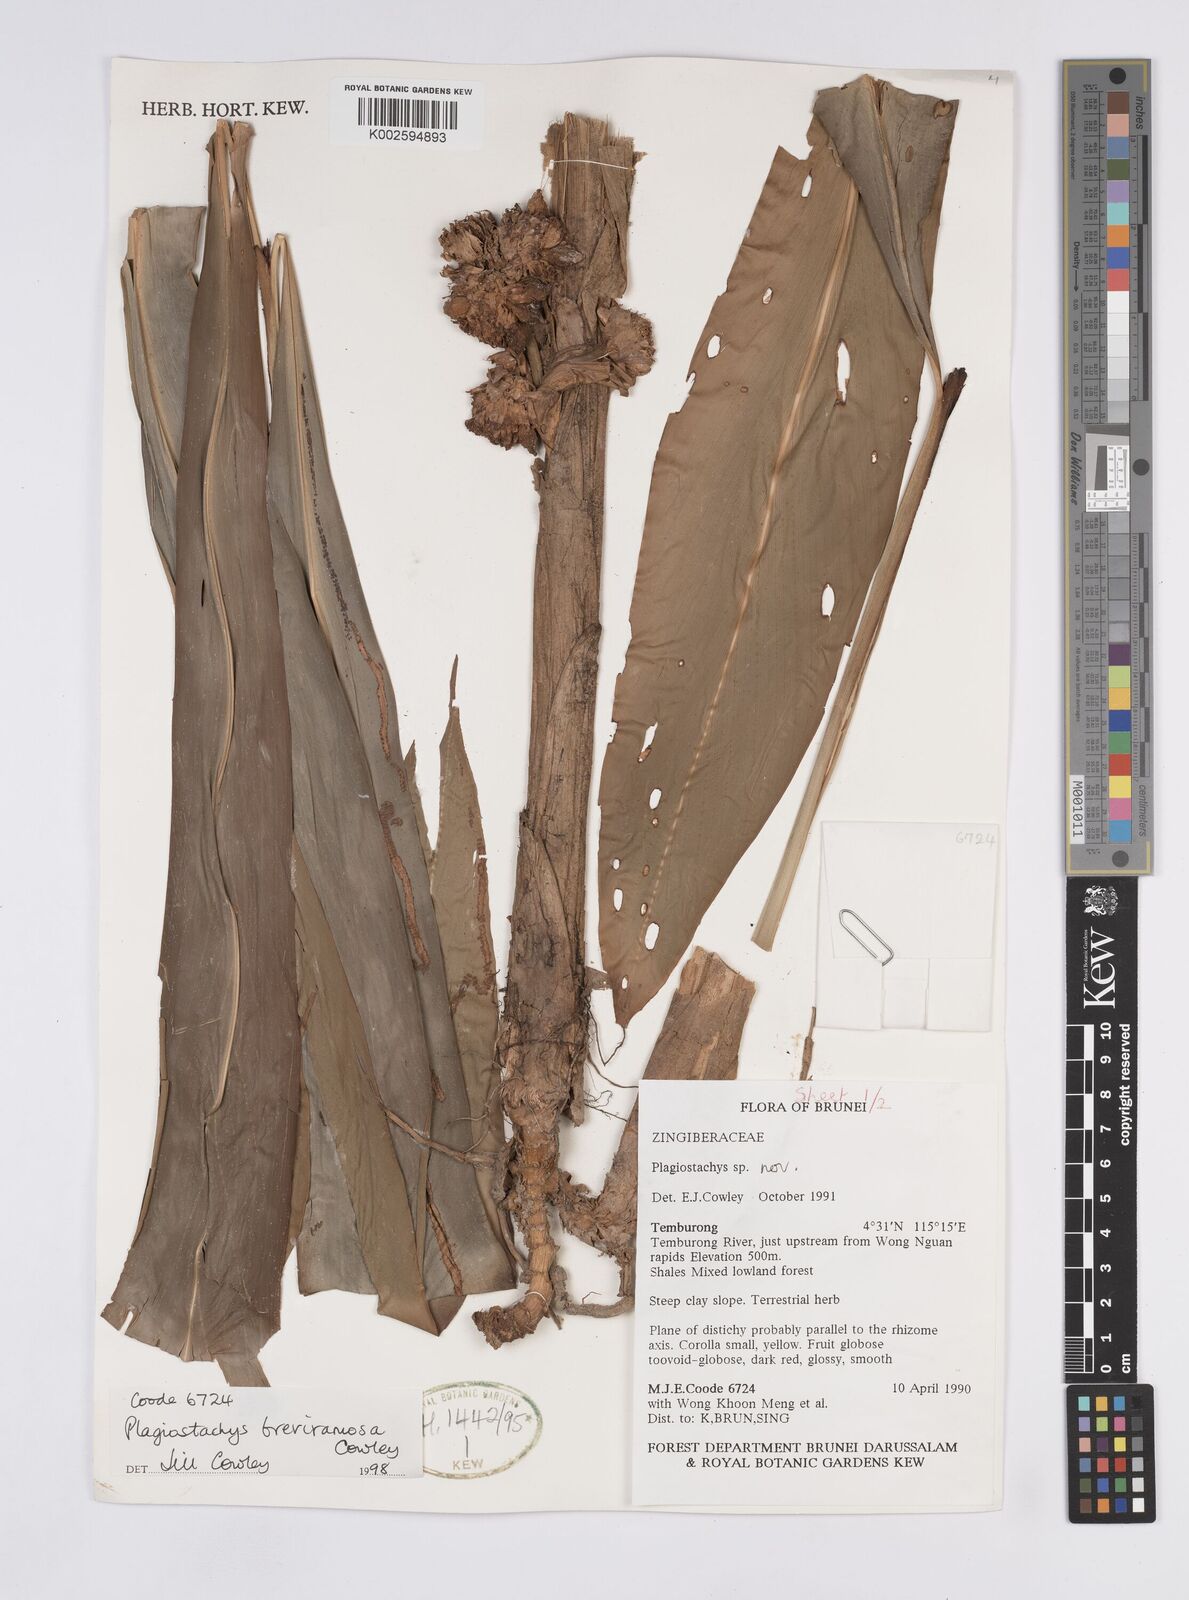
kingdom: Plantae
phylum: Tracheophyta
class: Liliopsida
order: Zingiberales
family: Zingiberaceae
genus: Plagiostachys
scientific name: Plagiostachys breviramosa
